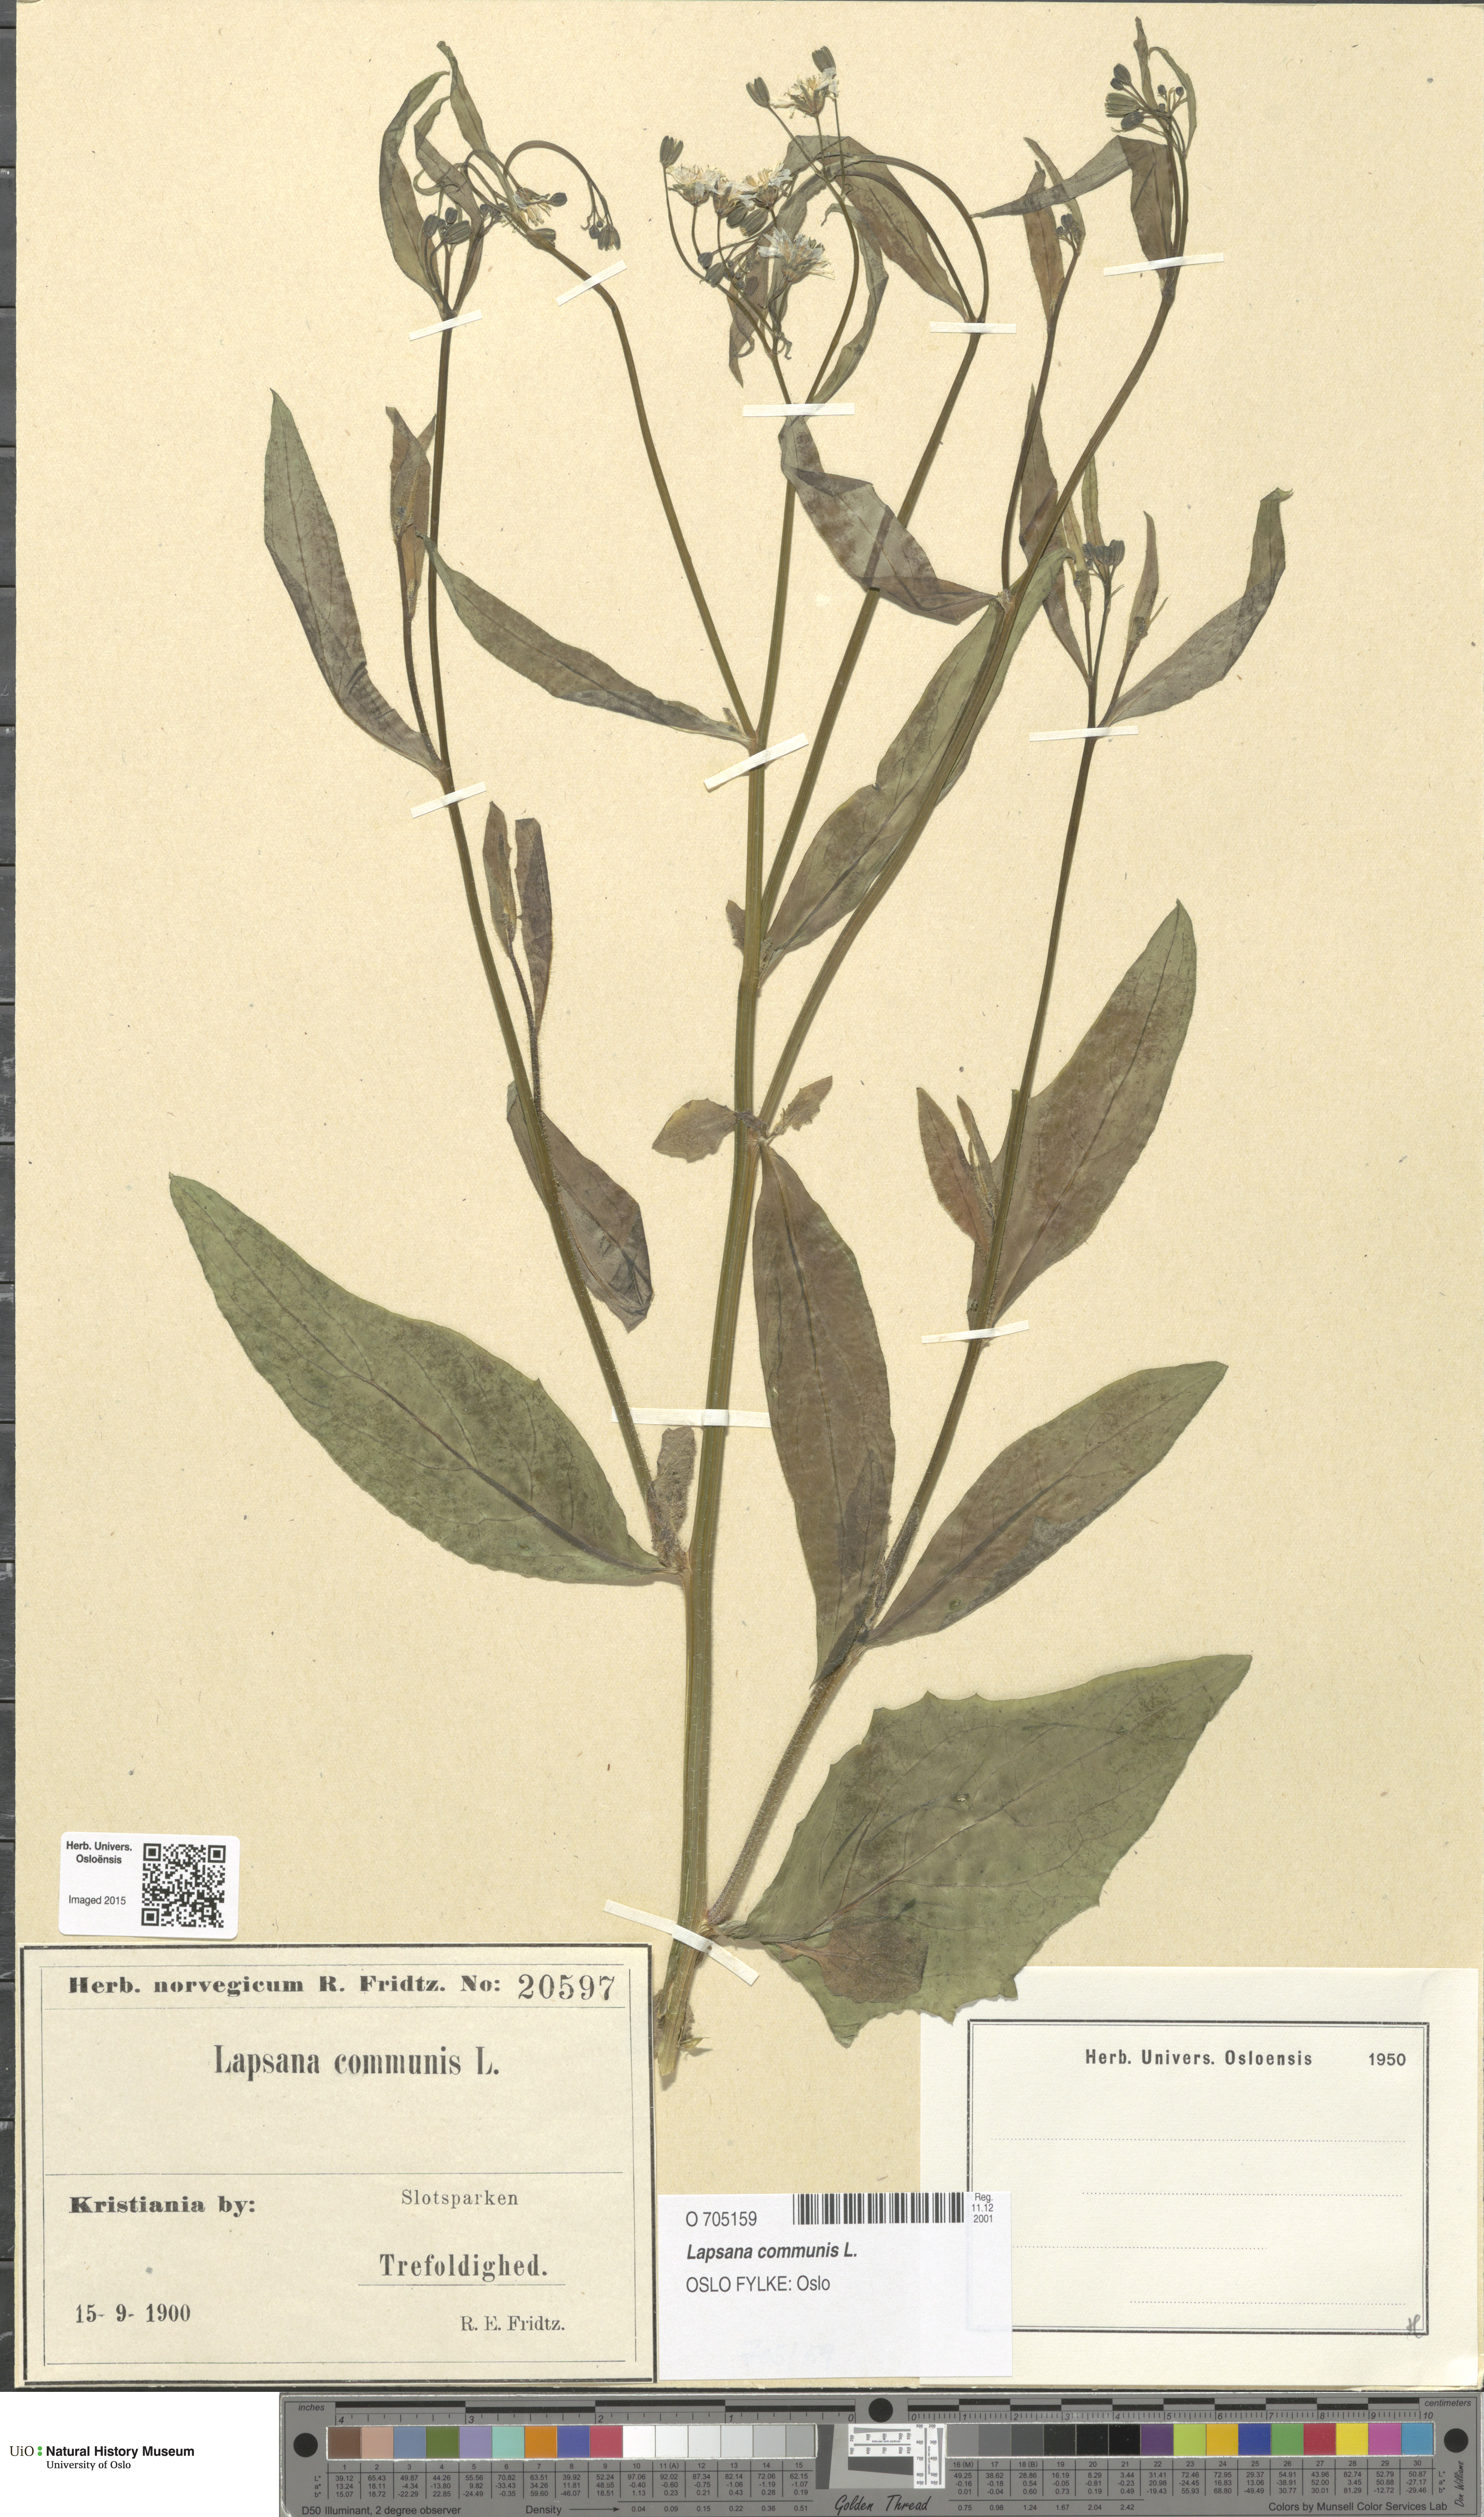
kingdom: Plantae
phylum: Tracheophyta
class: Magnoliopsida
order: Asterales
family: Asteraceae
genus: Lapsana
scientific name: Lapsana communis
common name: Nipplewort
